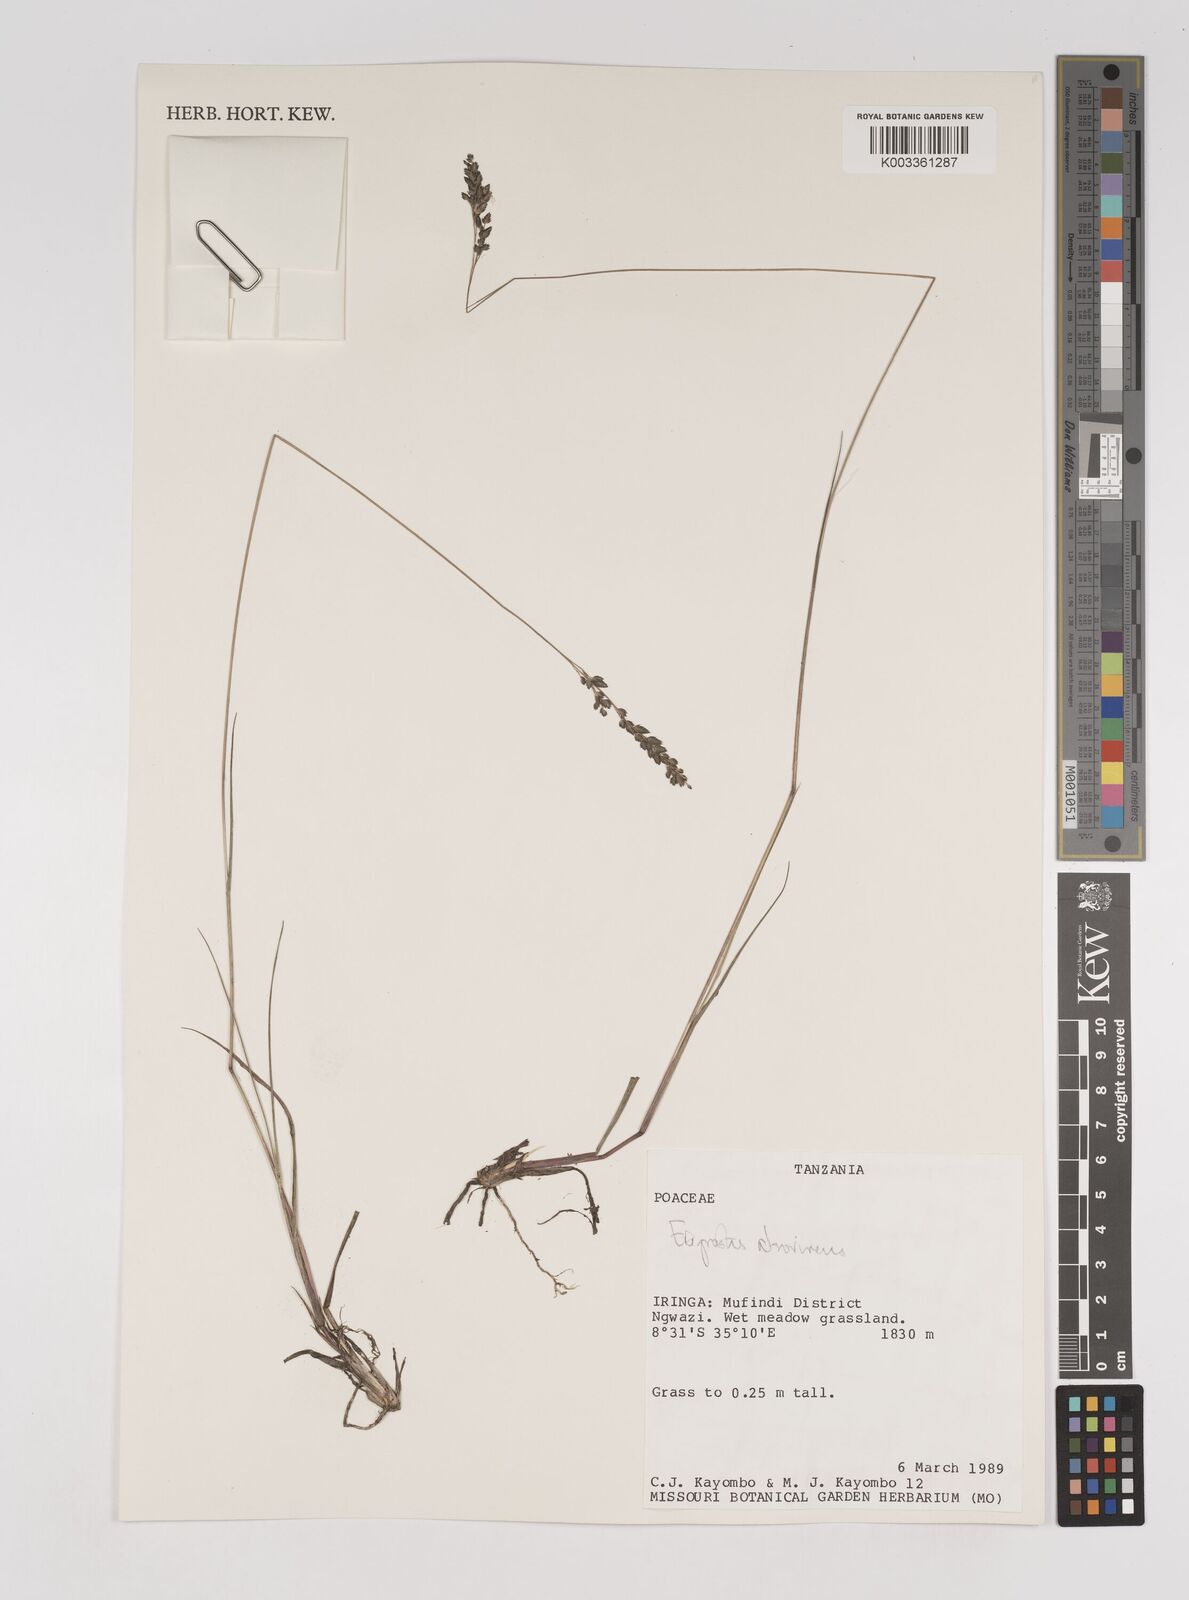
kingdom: Plantae
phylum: Tracheophyta
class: Liliopsida
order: Poales
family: Poaceae
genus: Eragrostis
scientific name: Eragrostis papposa
